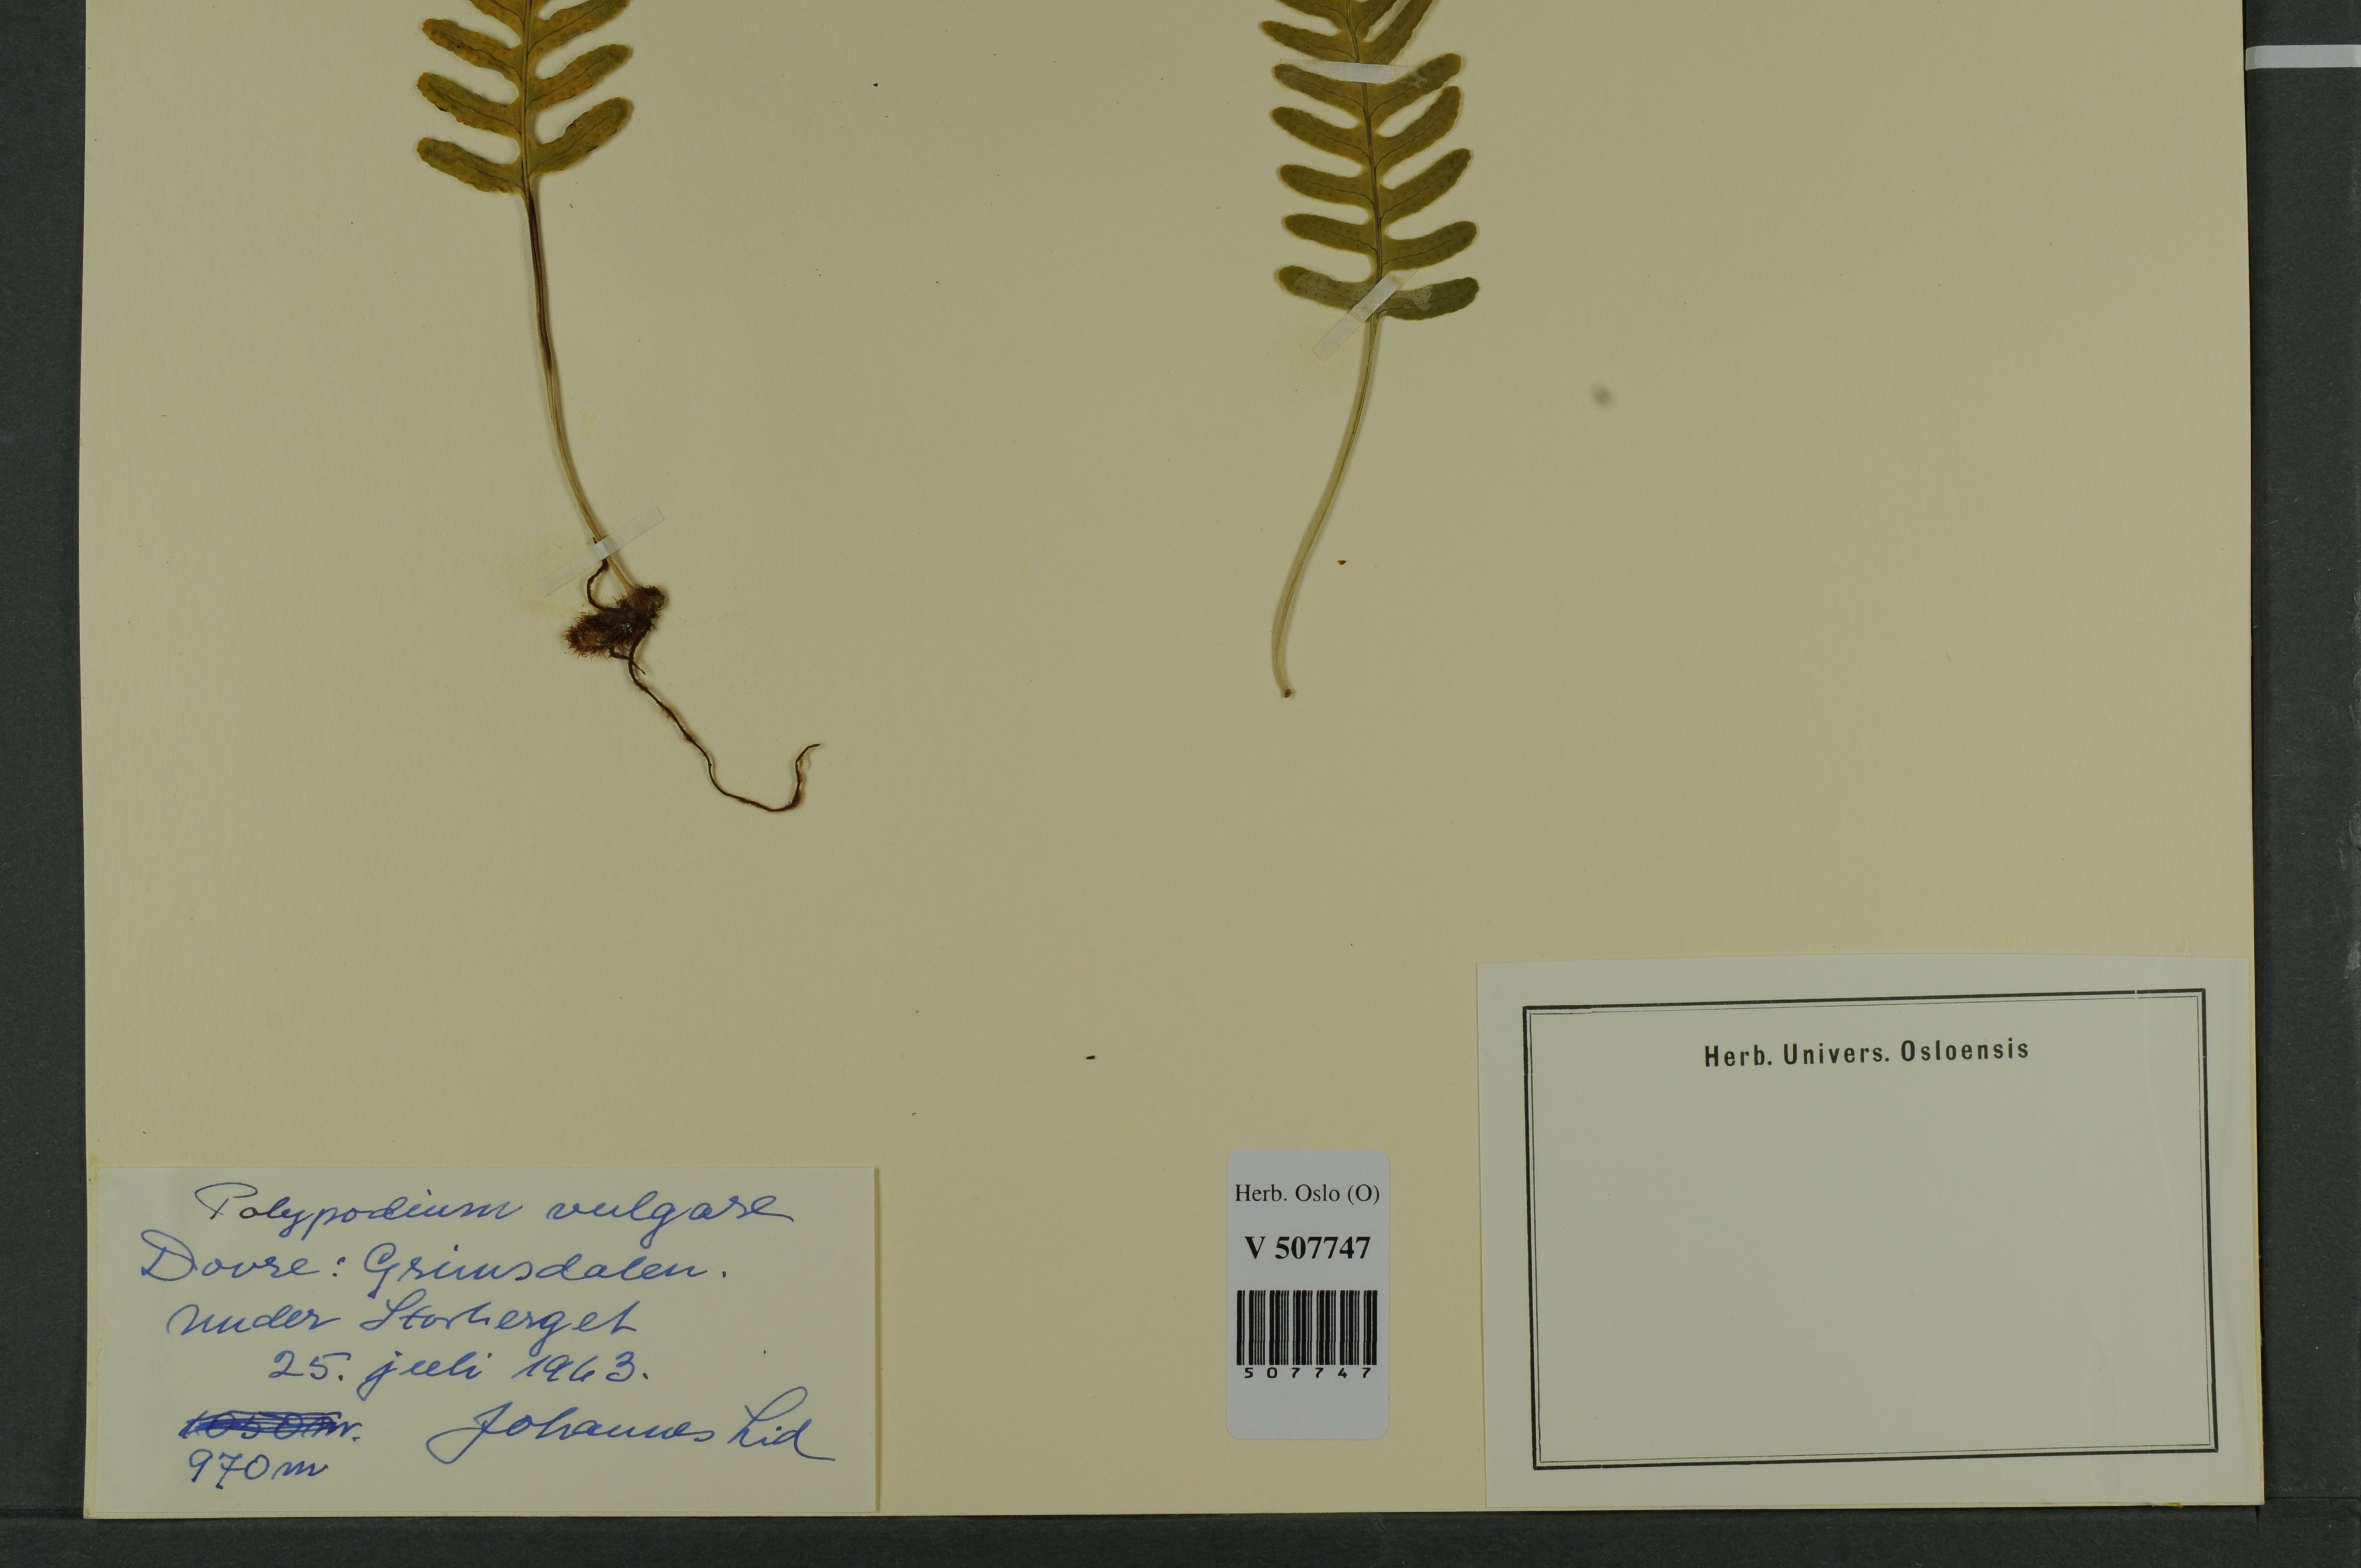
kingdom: Plantae
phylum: Tracheophyta
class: Polypodiopsida
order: Polypodiales
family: Polypodiaceae
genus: Polypodium
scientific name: Polypodium vulgare
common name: Common polypody
